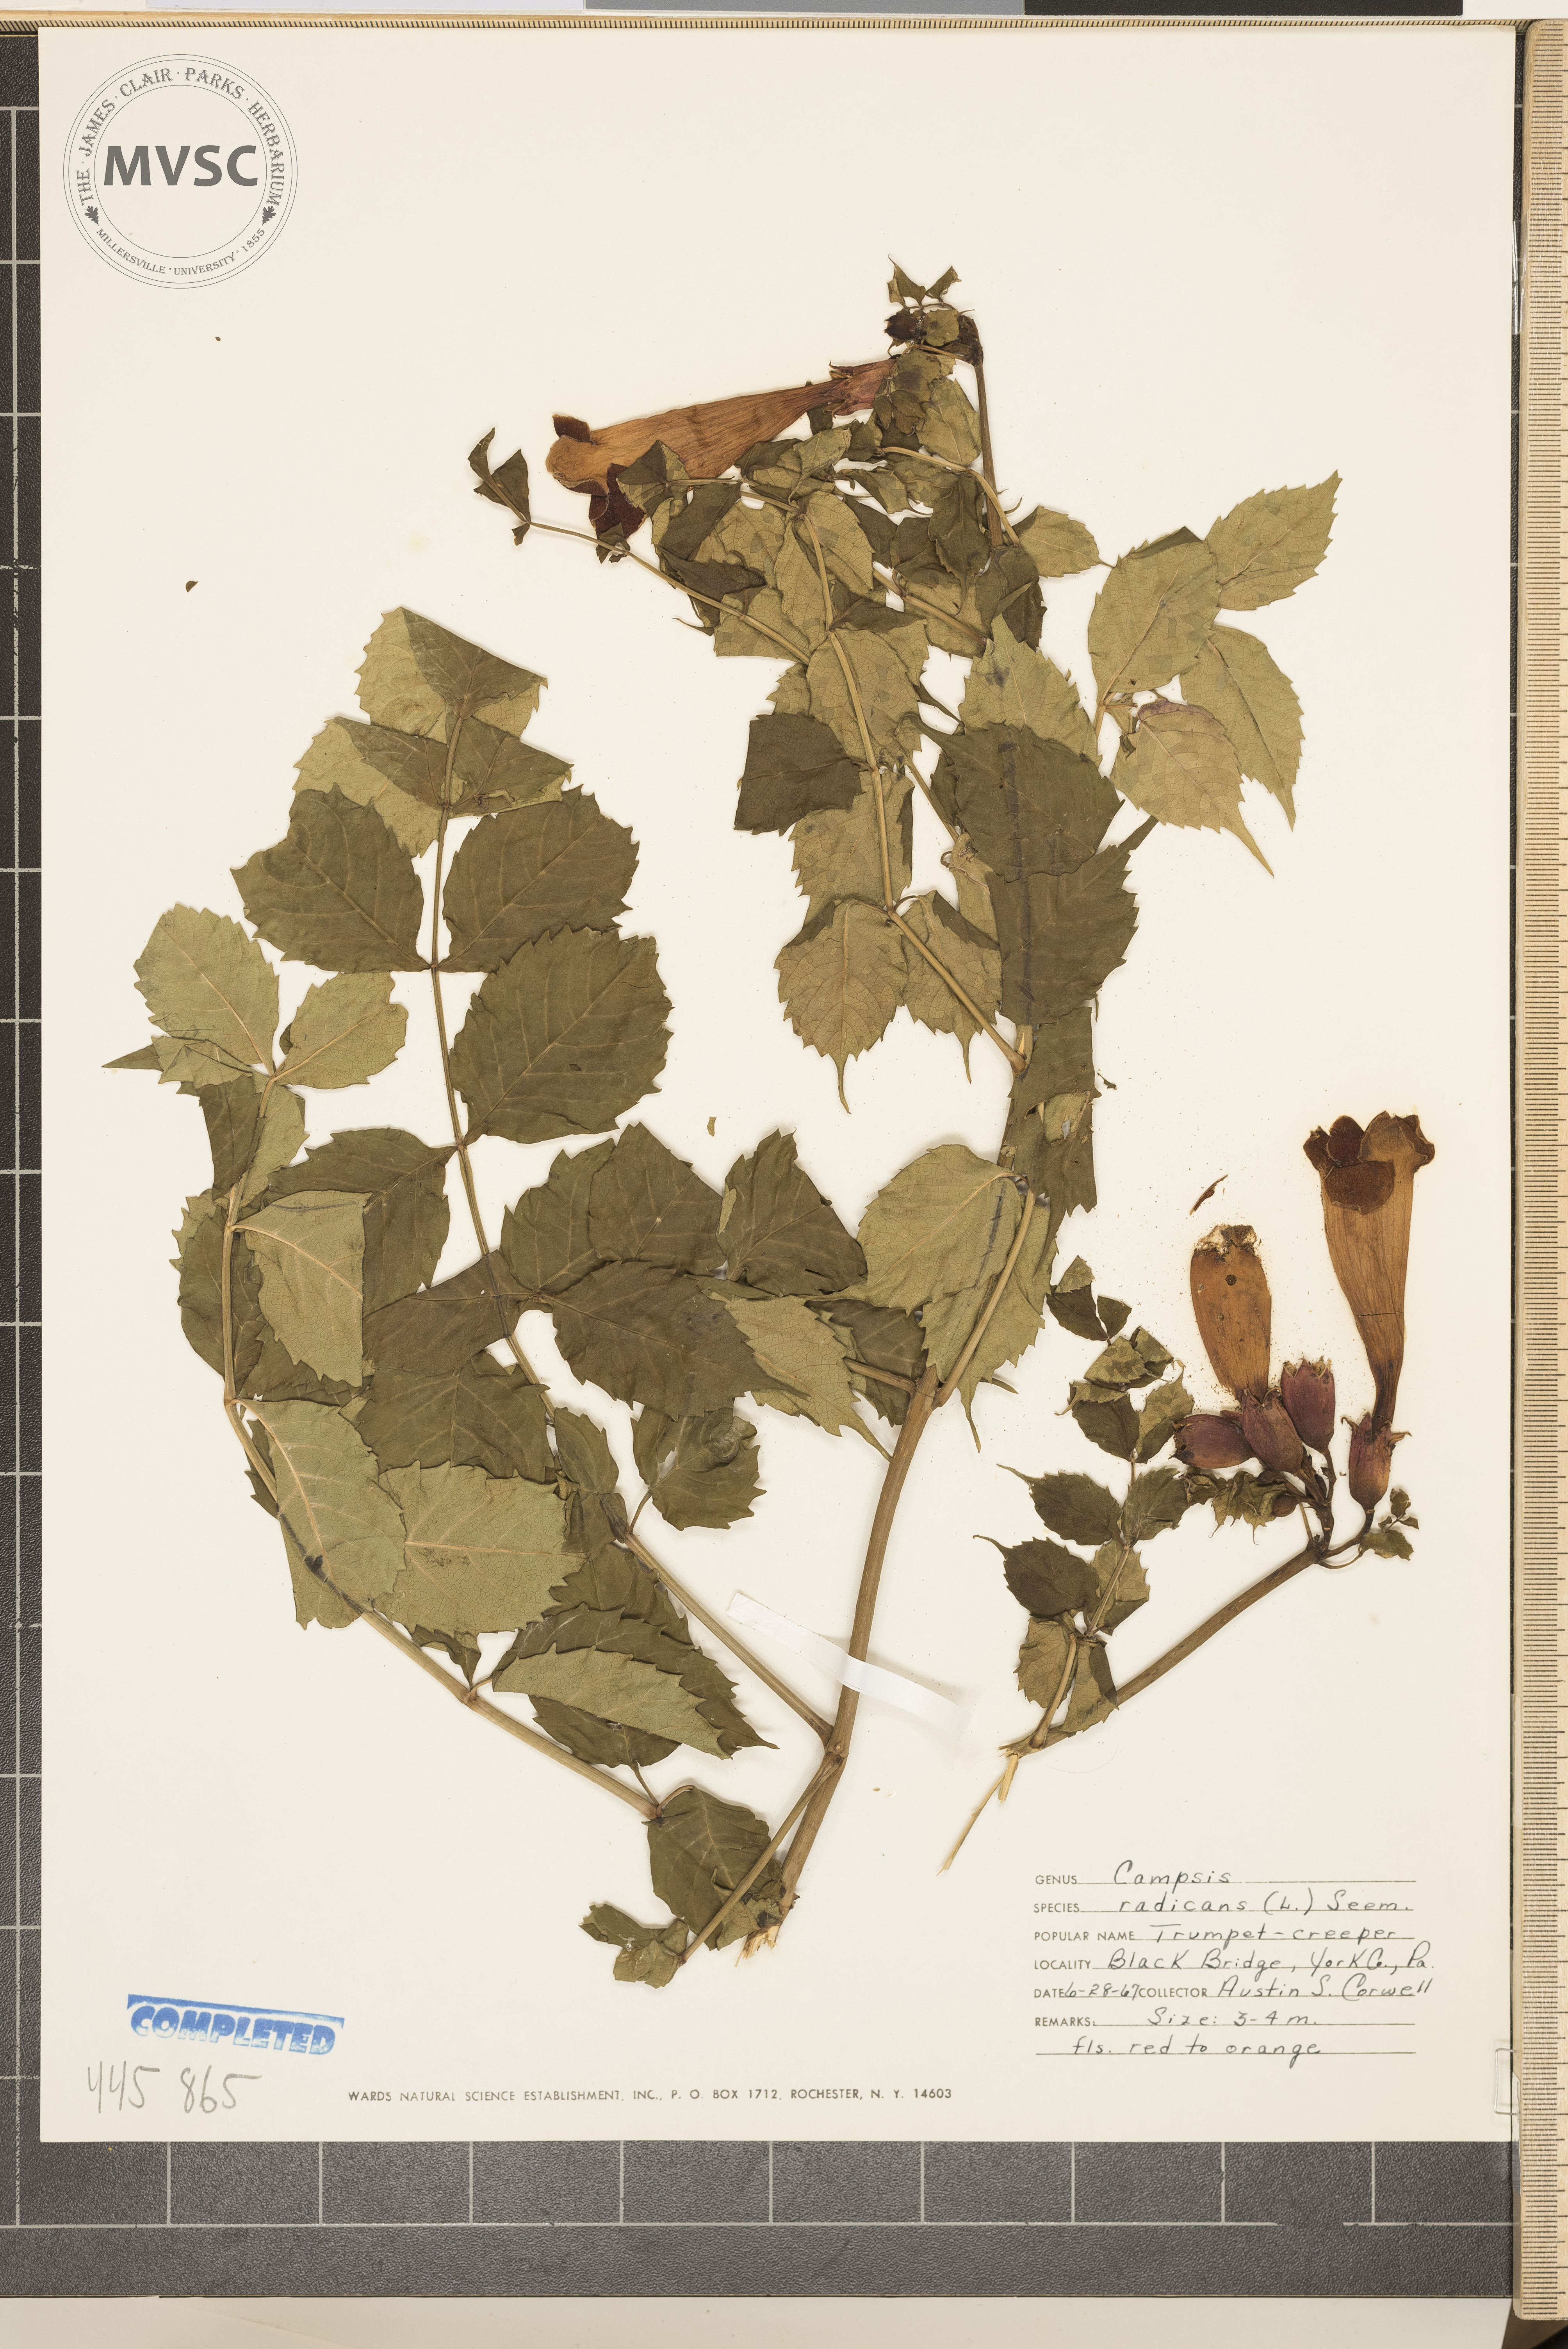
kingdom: Plantae
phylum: Tracheophyta
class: Magnoliopsida
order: Lamiales
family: Bignoniaceae
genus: Campsis
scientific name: Campsis radicans
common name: Trumpet-creeper
